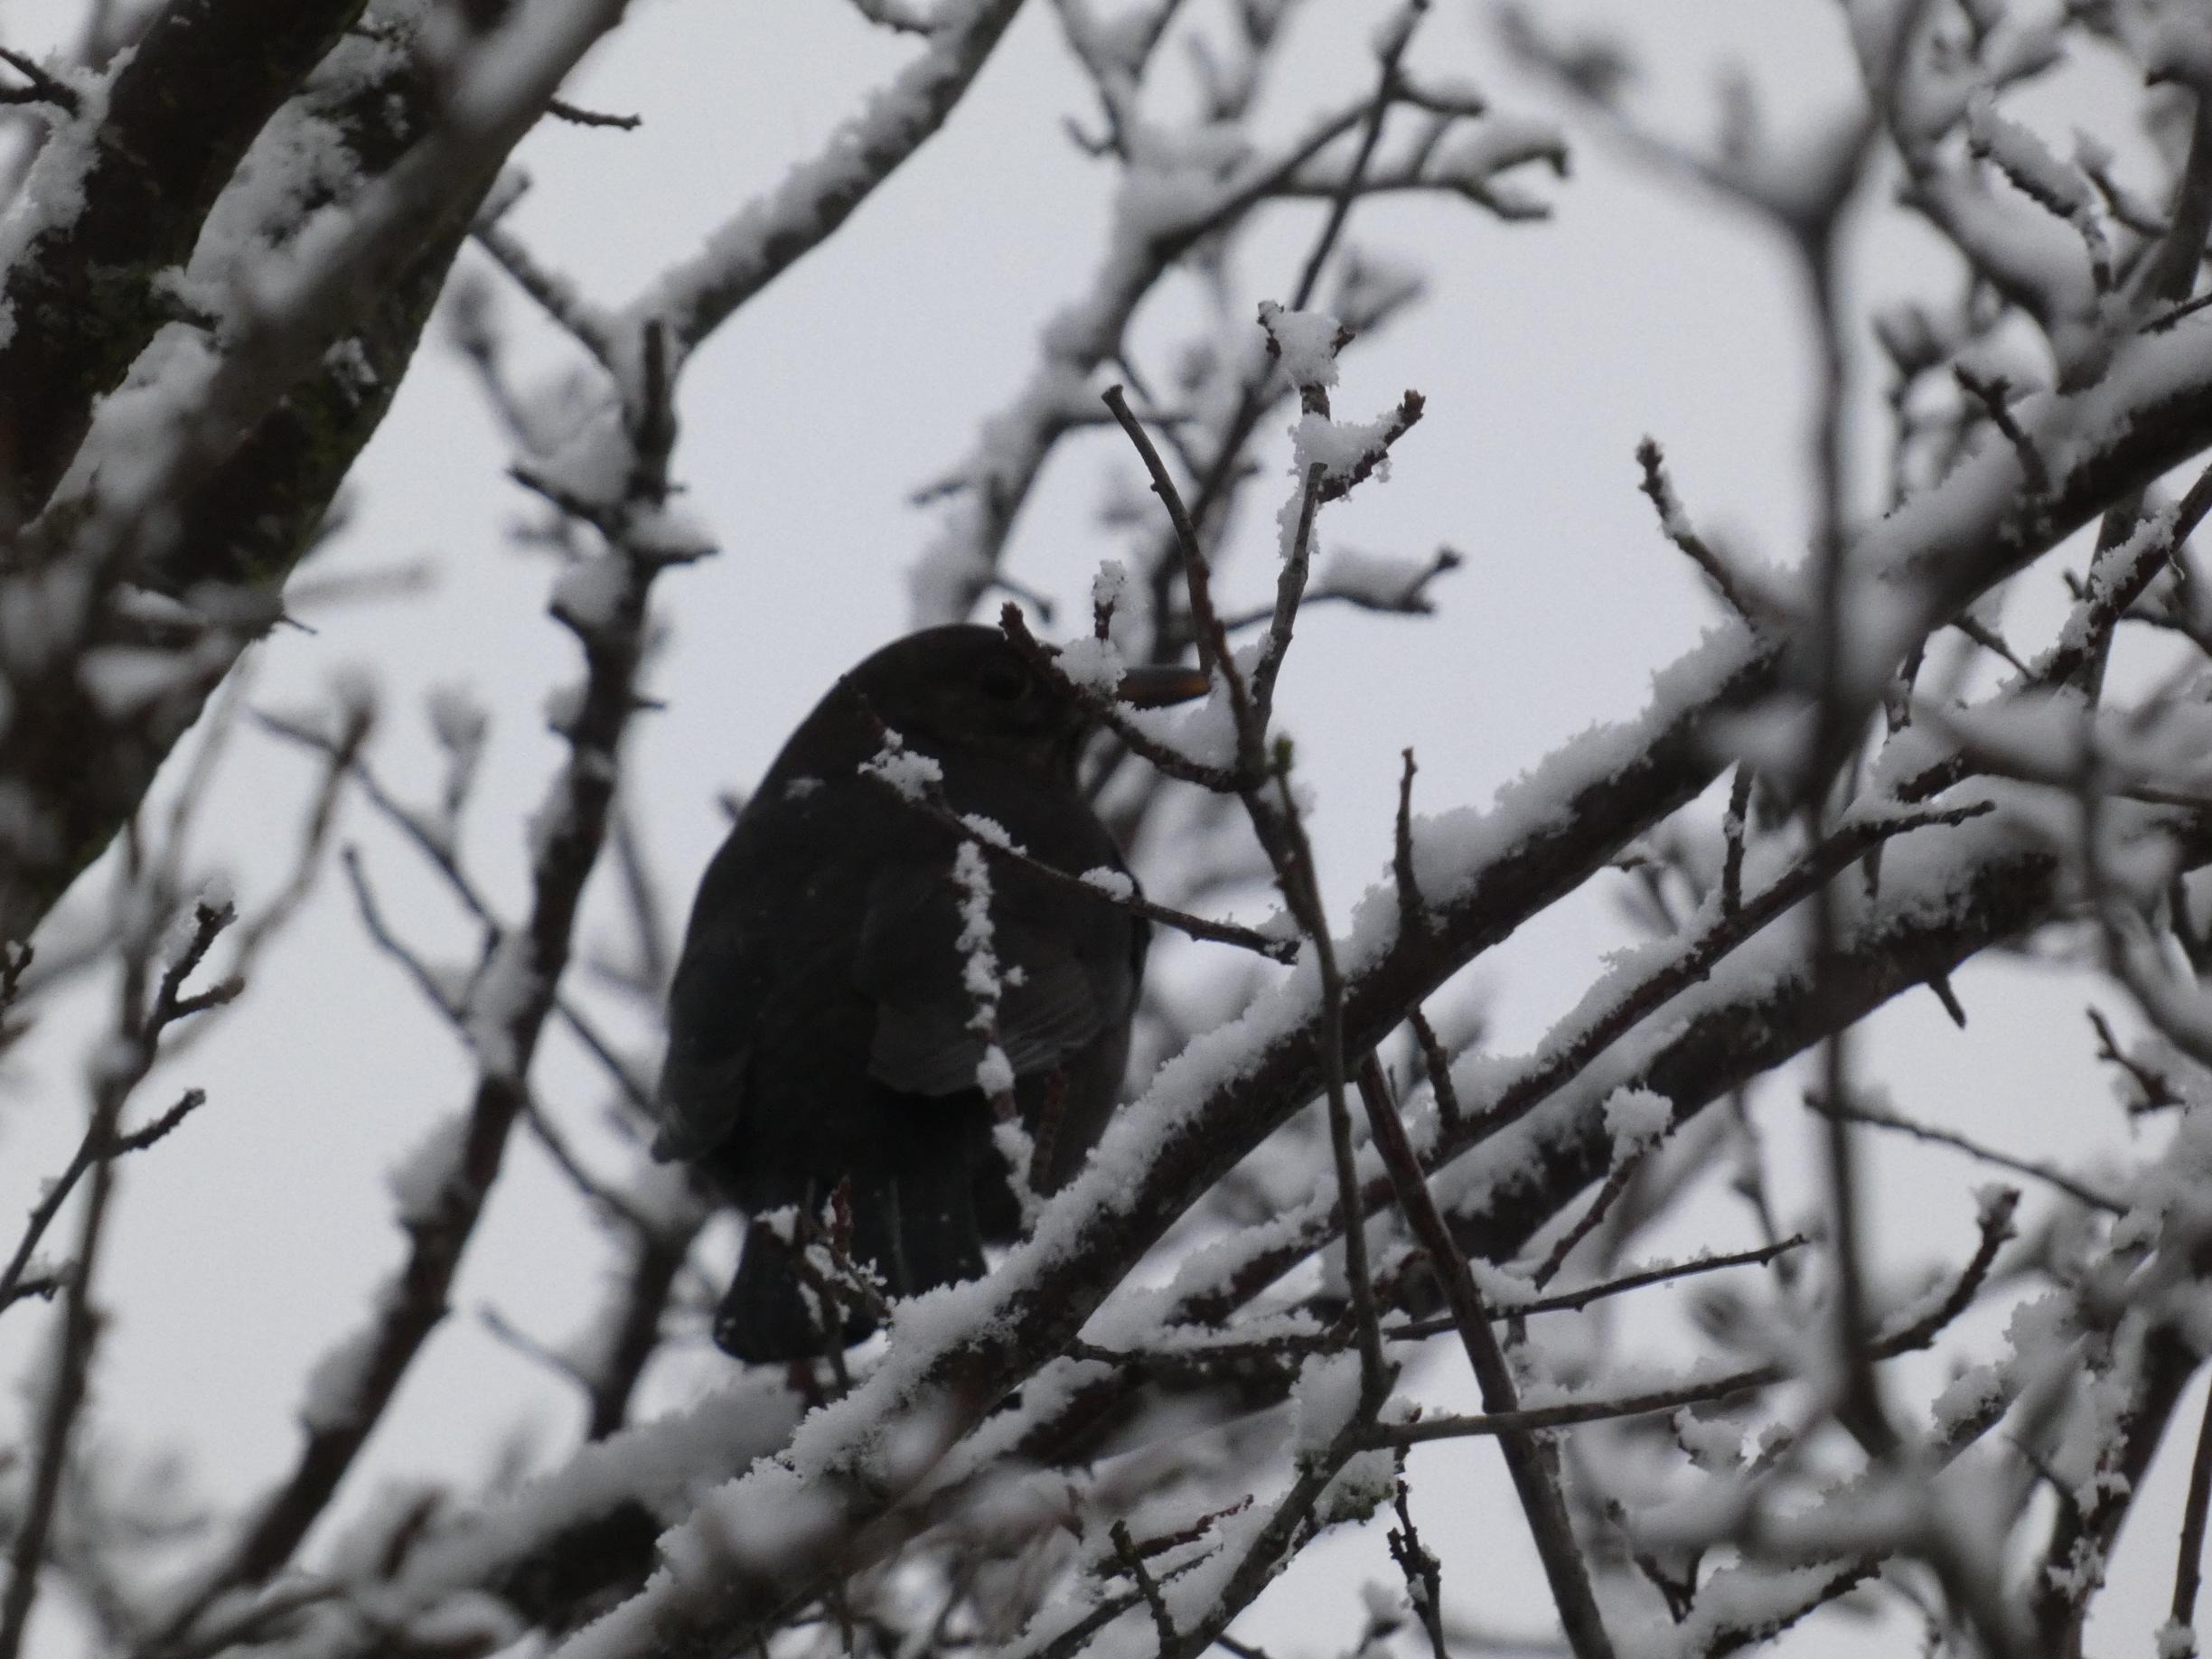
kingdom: Animalia
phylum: Chordata
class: Aves
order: Passeriformes
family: Turdidae
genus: Turdus
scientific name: Turdus merula
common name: Solsort
